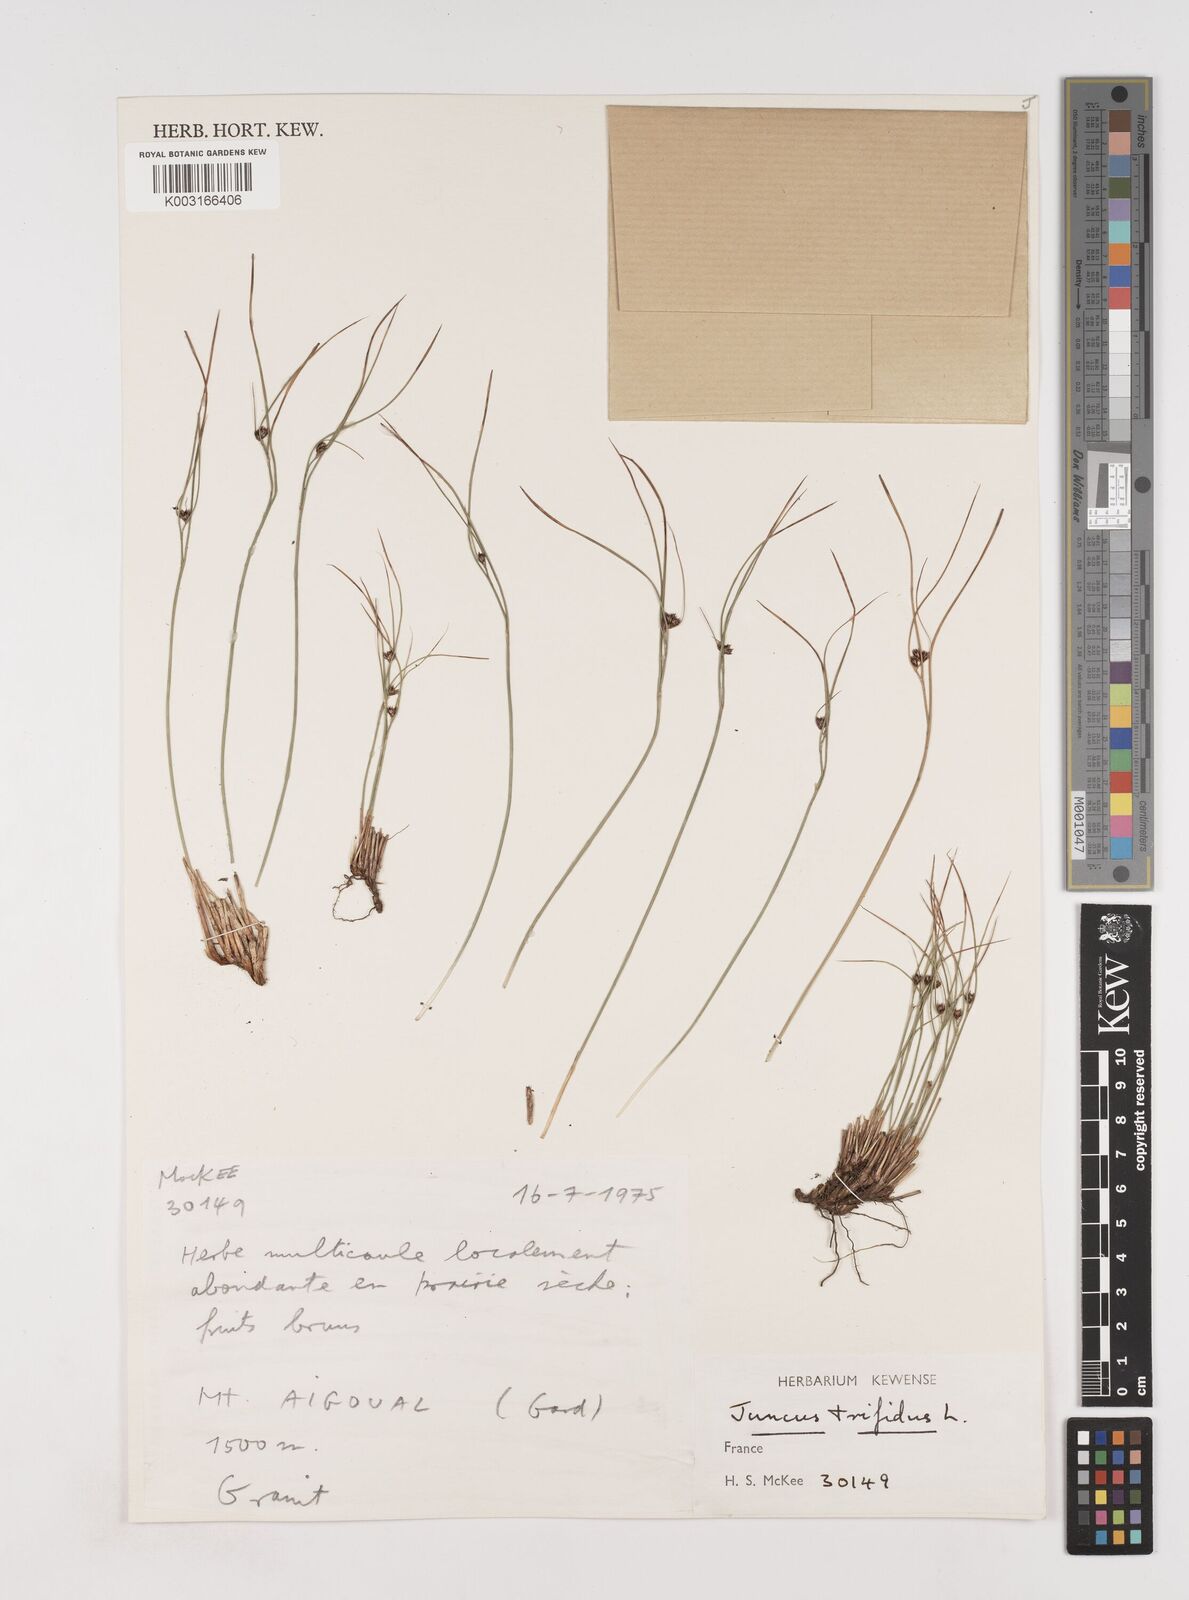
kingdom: Plantae
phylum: Tracheophyta
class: Liliopsida
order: Poales
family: Juncaceae
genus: Oreojuncus
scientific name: Oreojuncus trifidus
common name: Highland rush
